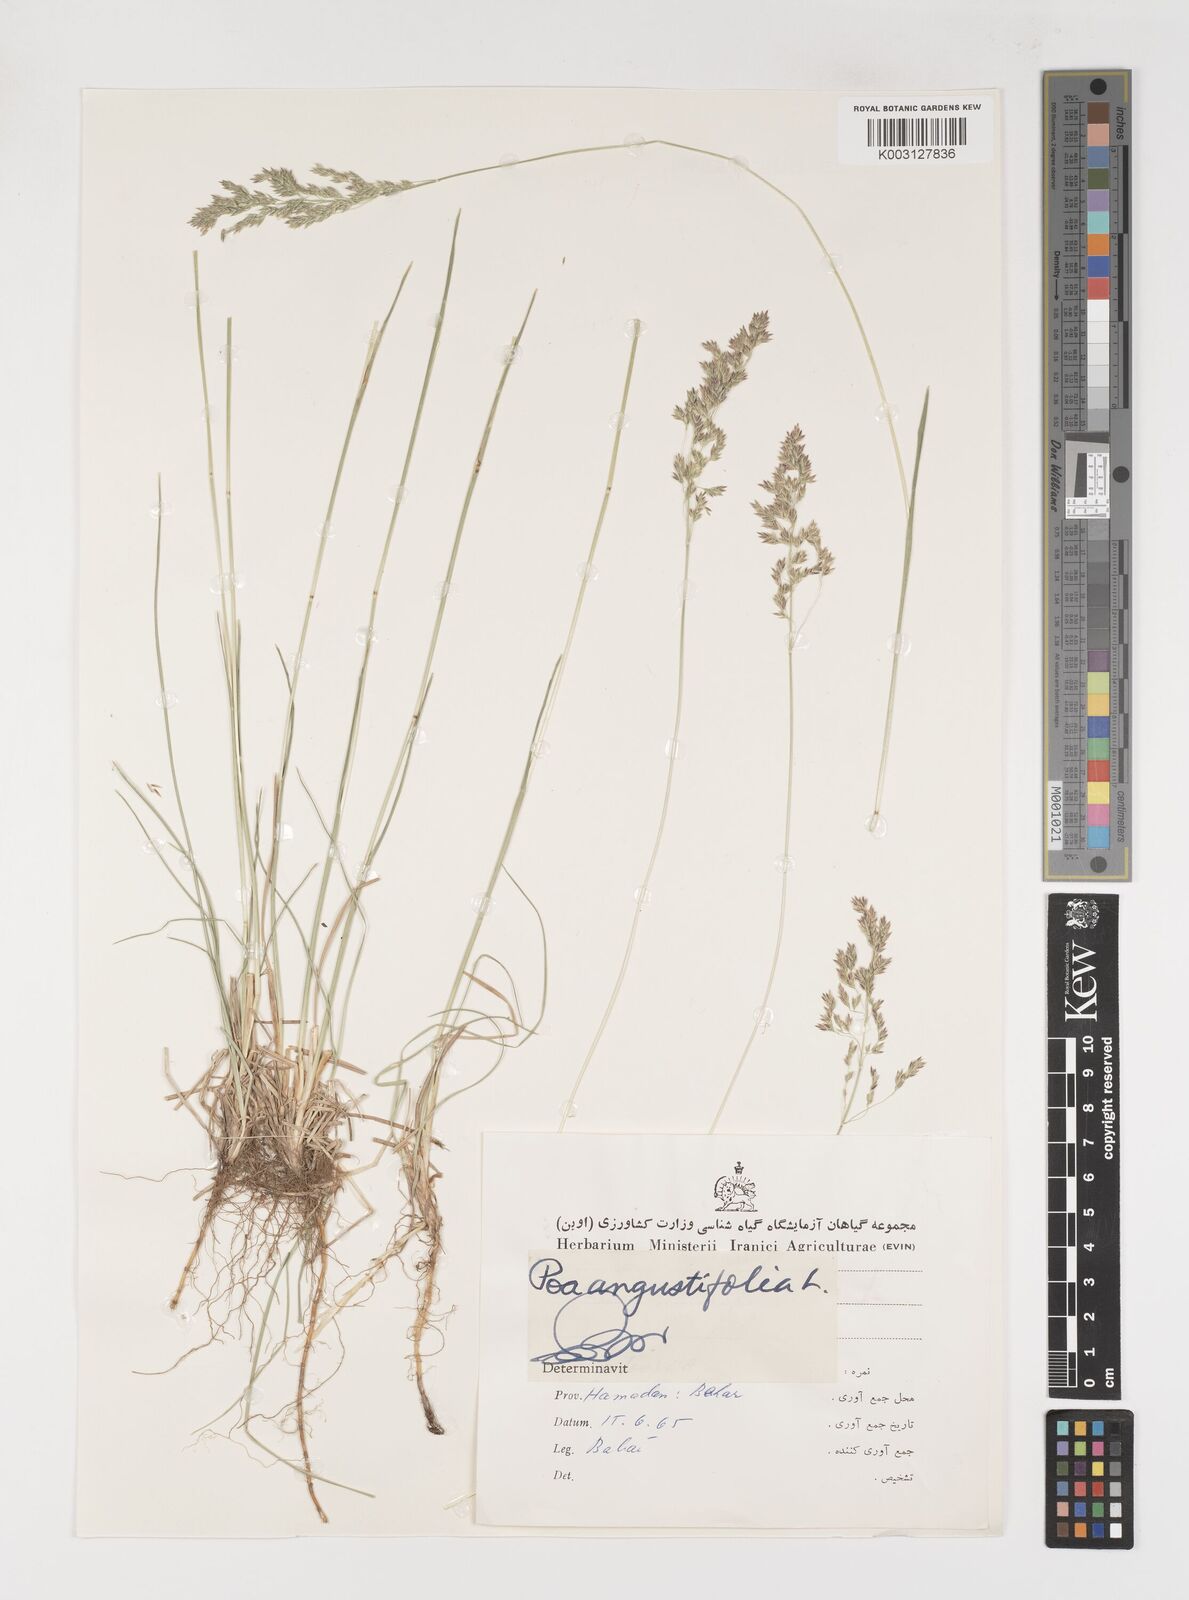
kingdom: Plantae
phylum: Tracheophyta
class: Liliopsida
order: Poales
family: Poaceae
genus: Poa
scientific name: Poa angustifolia
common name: Narrow-leaved meadow-grass
